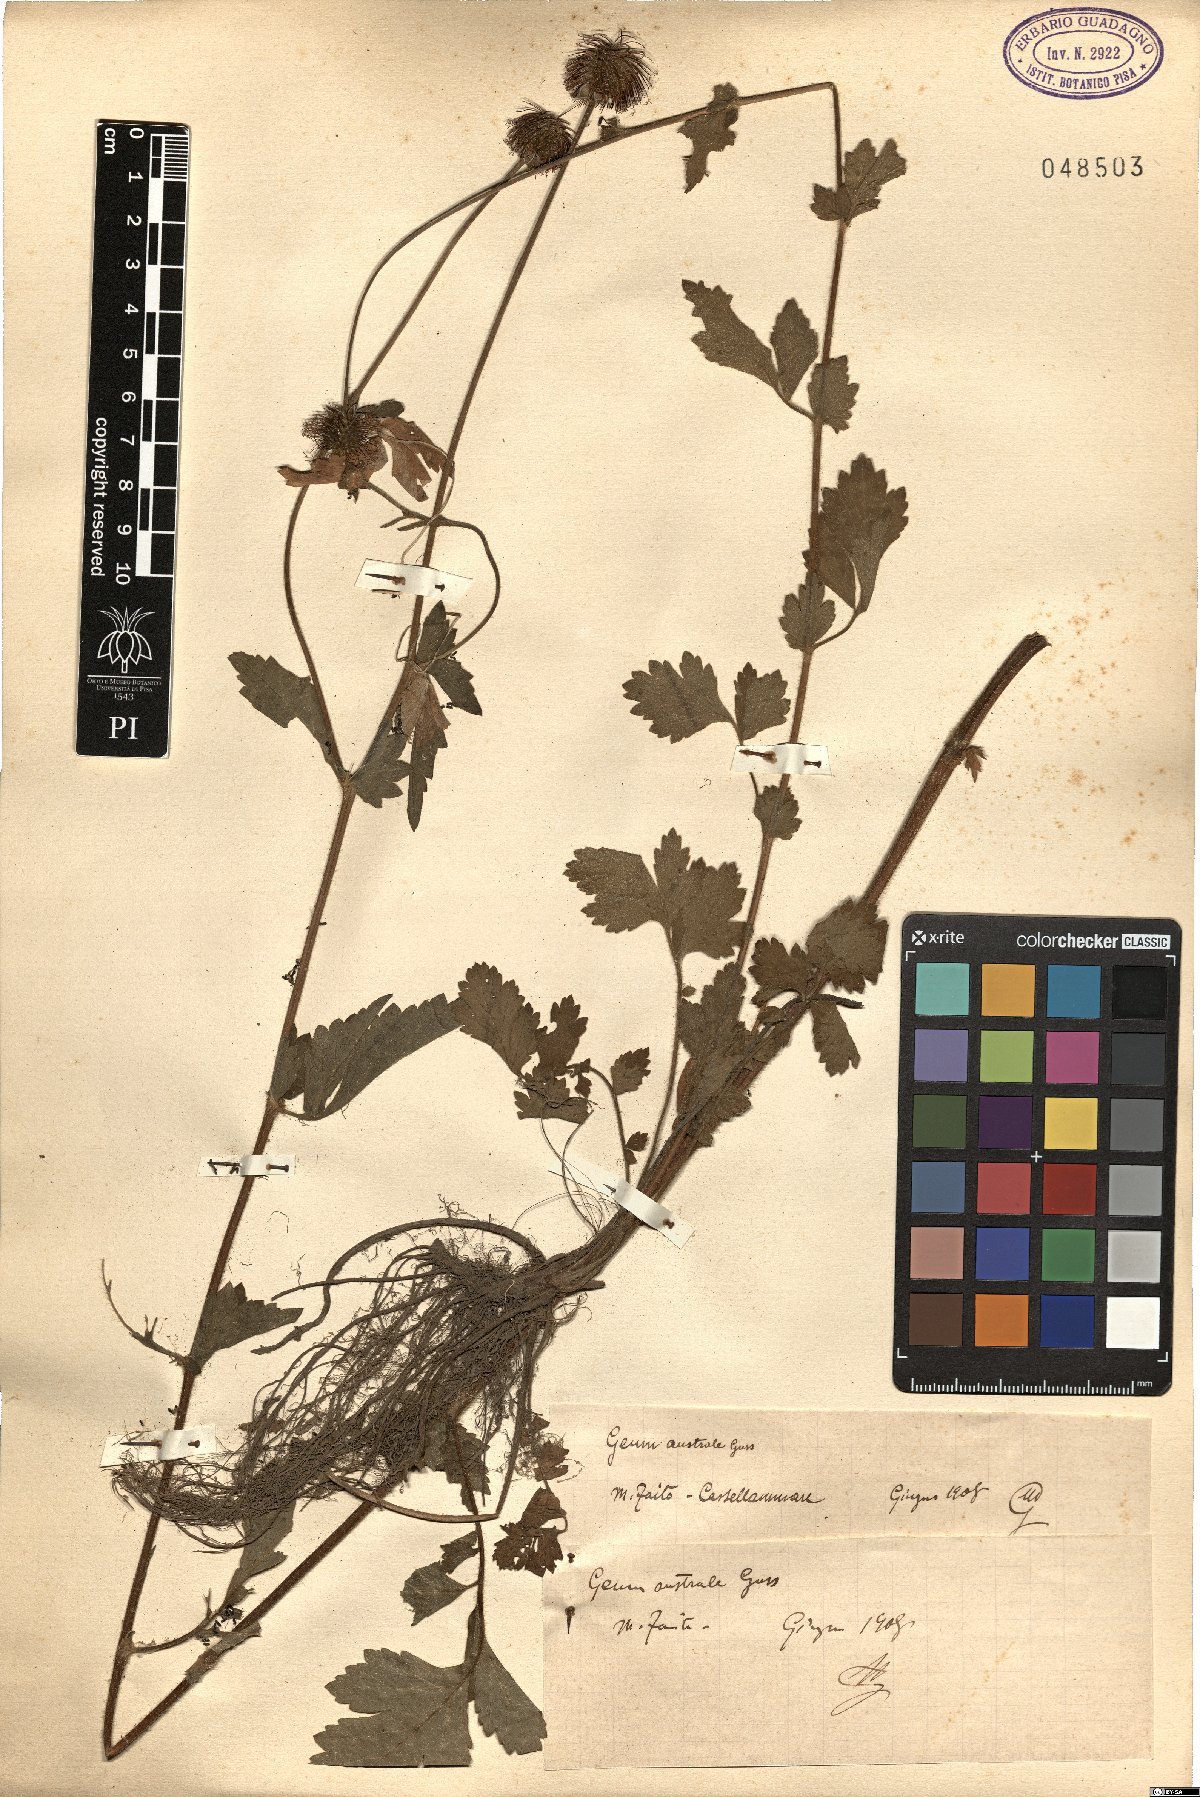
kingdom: Plantae
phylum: Tracheophyta
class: Magnoliopsida
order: Rosales
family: Rosaceae
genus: Geum
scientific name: Geum
